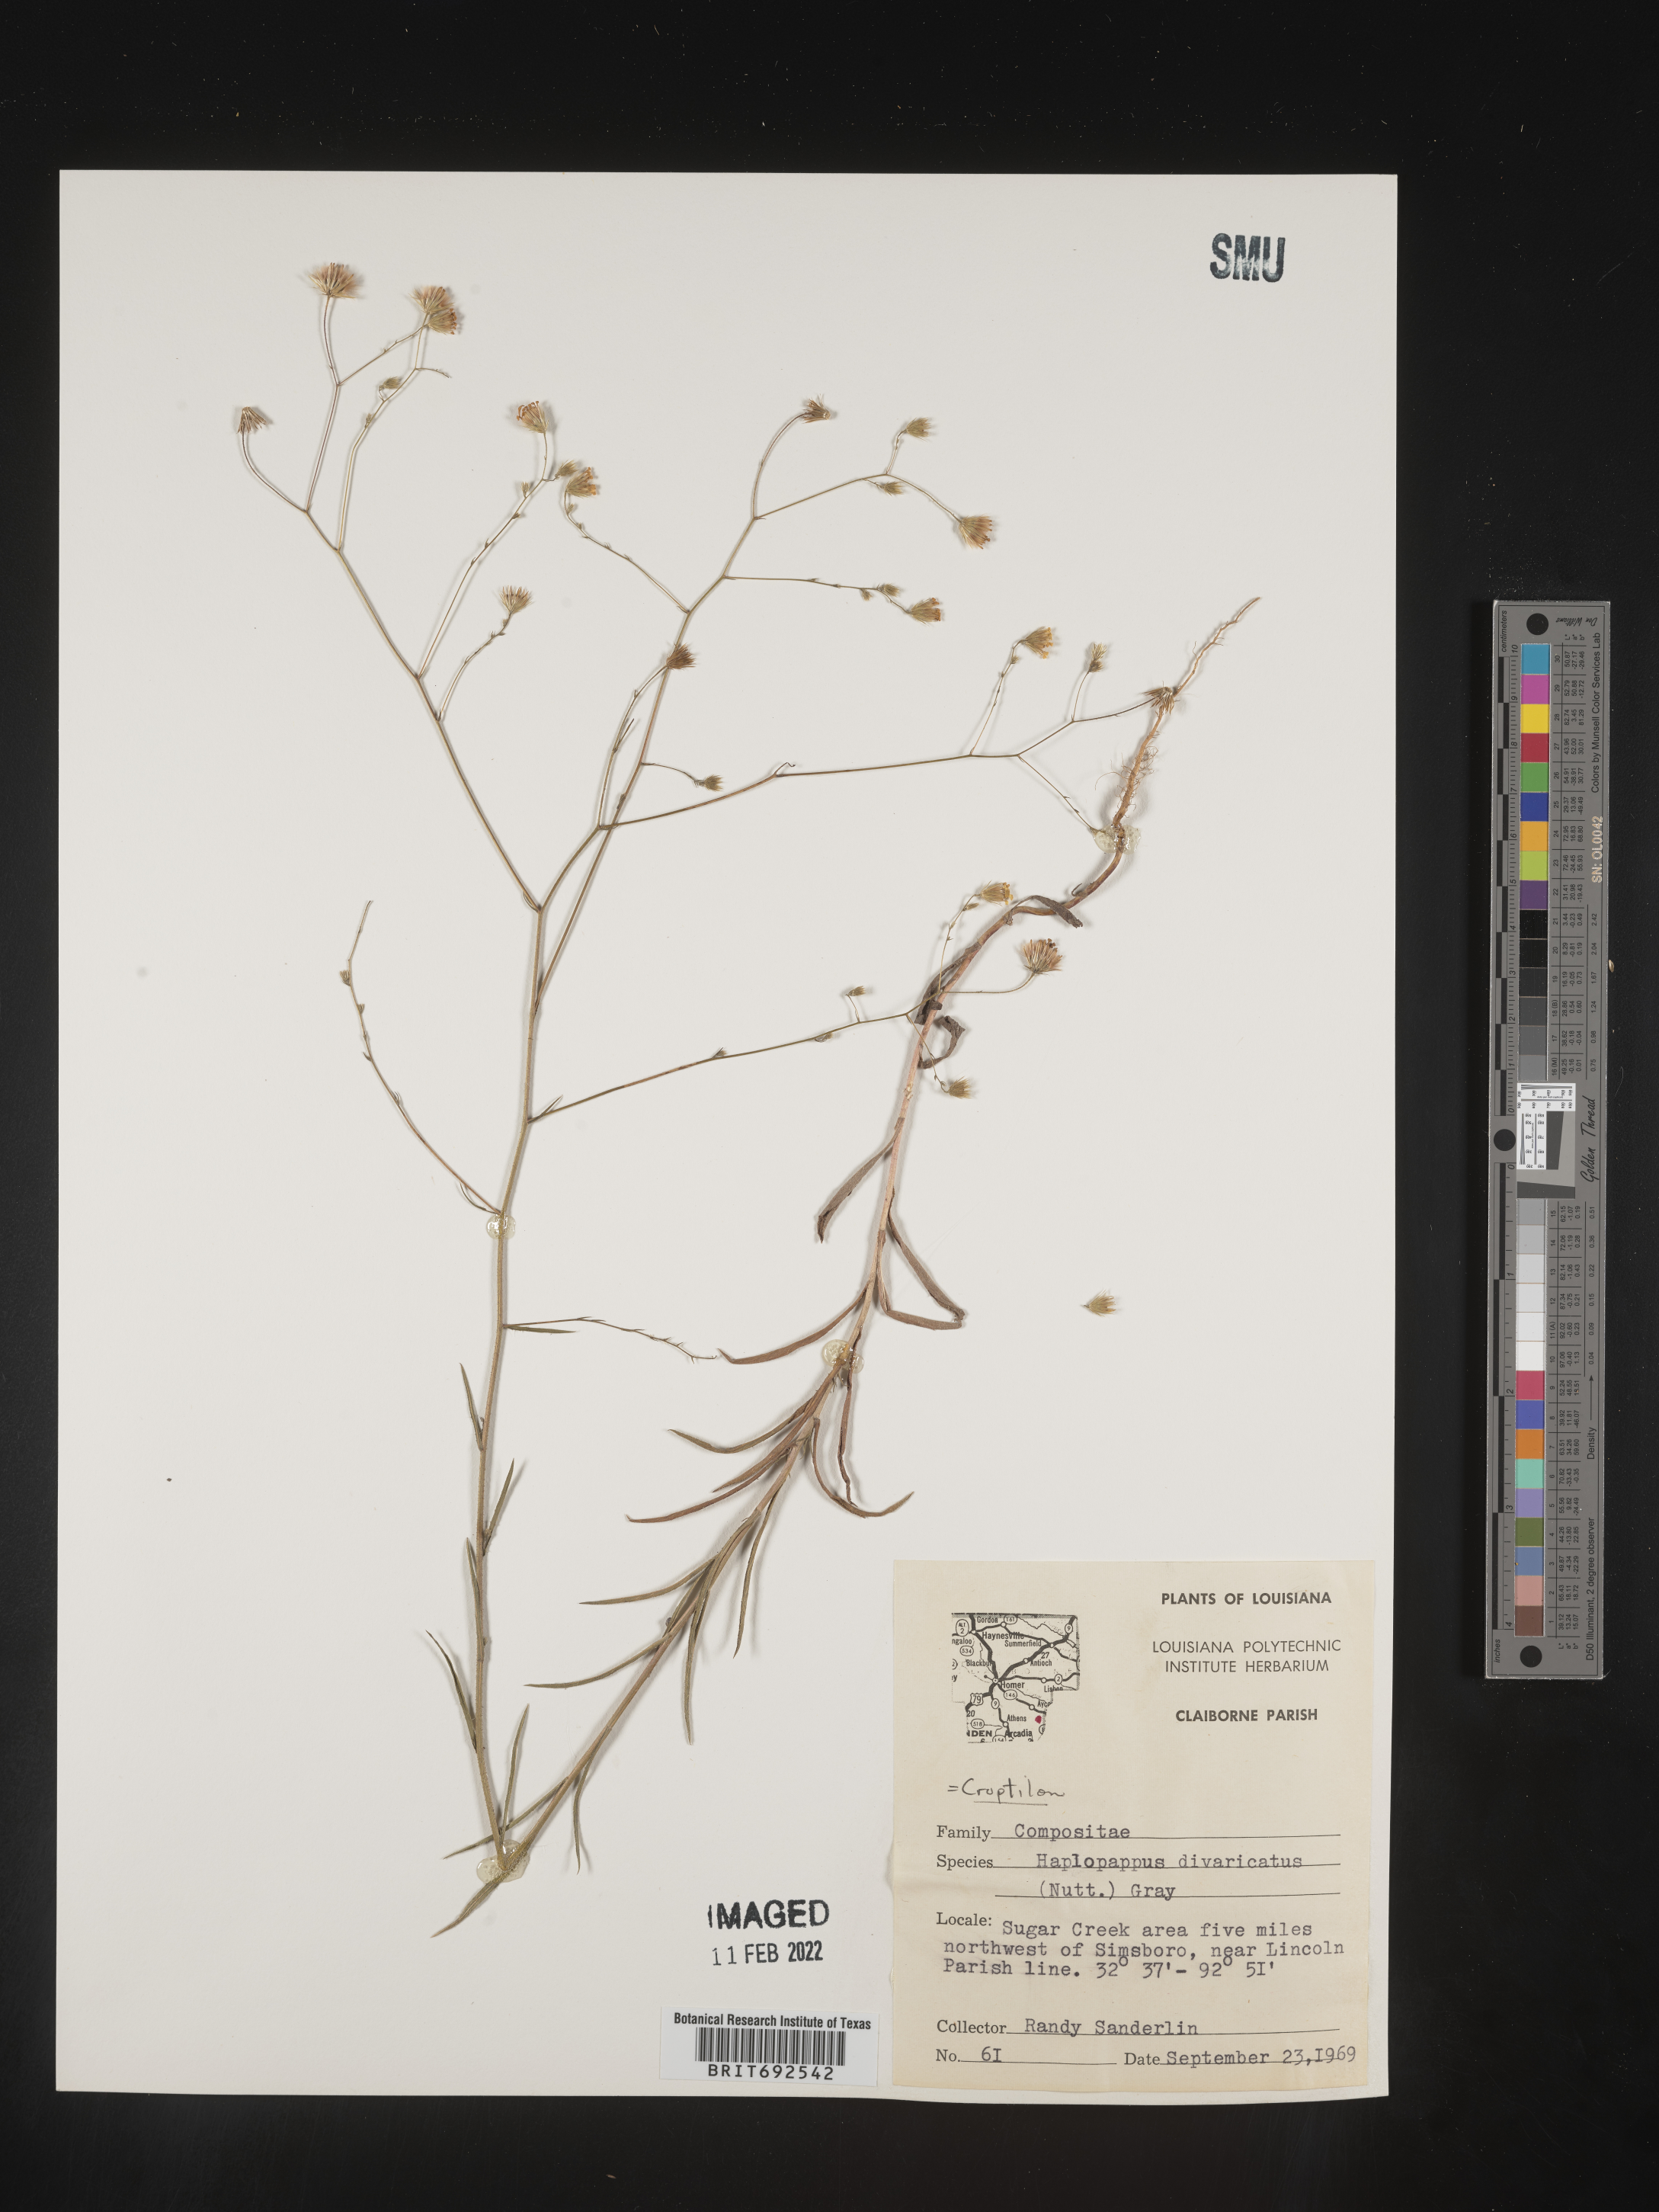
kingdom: Plantae
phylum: Tracheophyta
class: Magnoliopsida
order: Asterales
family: Asteraceae
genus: Croptilon
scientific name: Croptilon divaricatum
